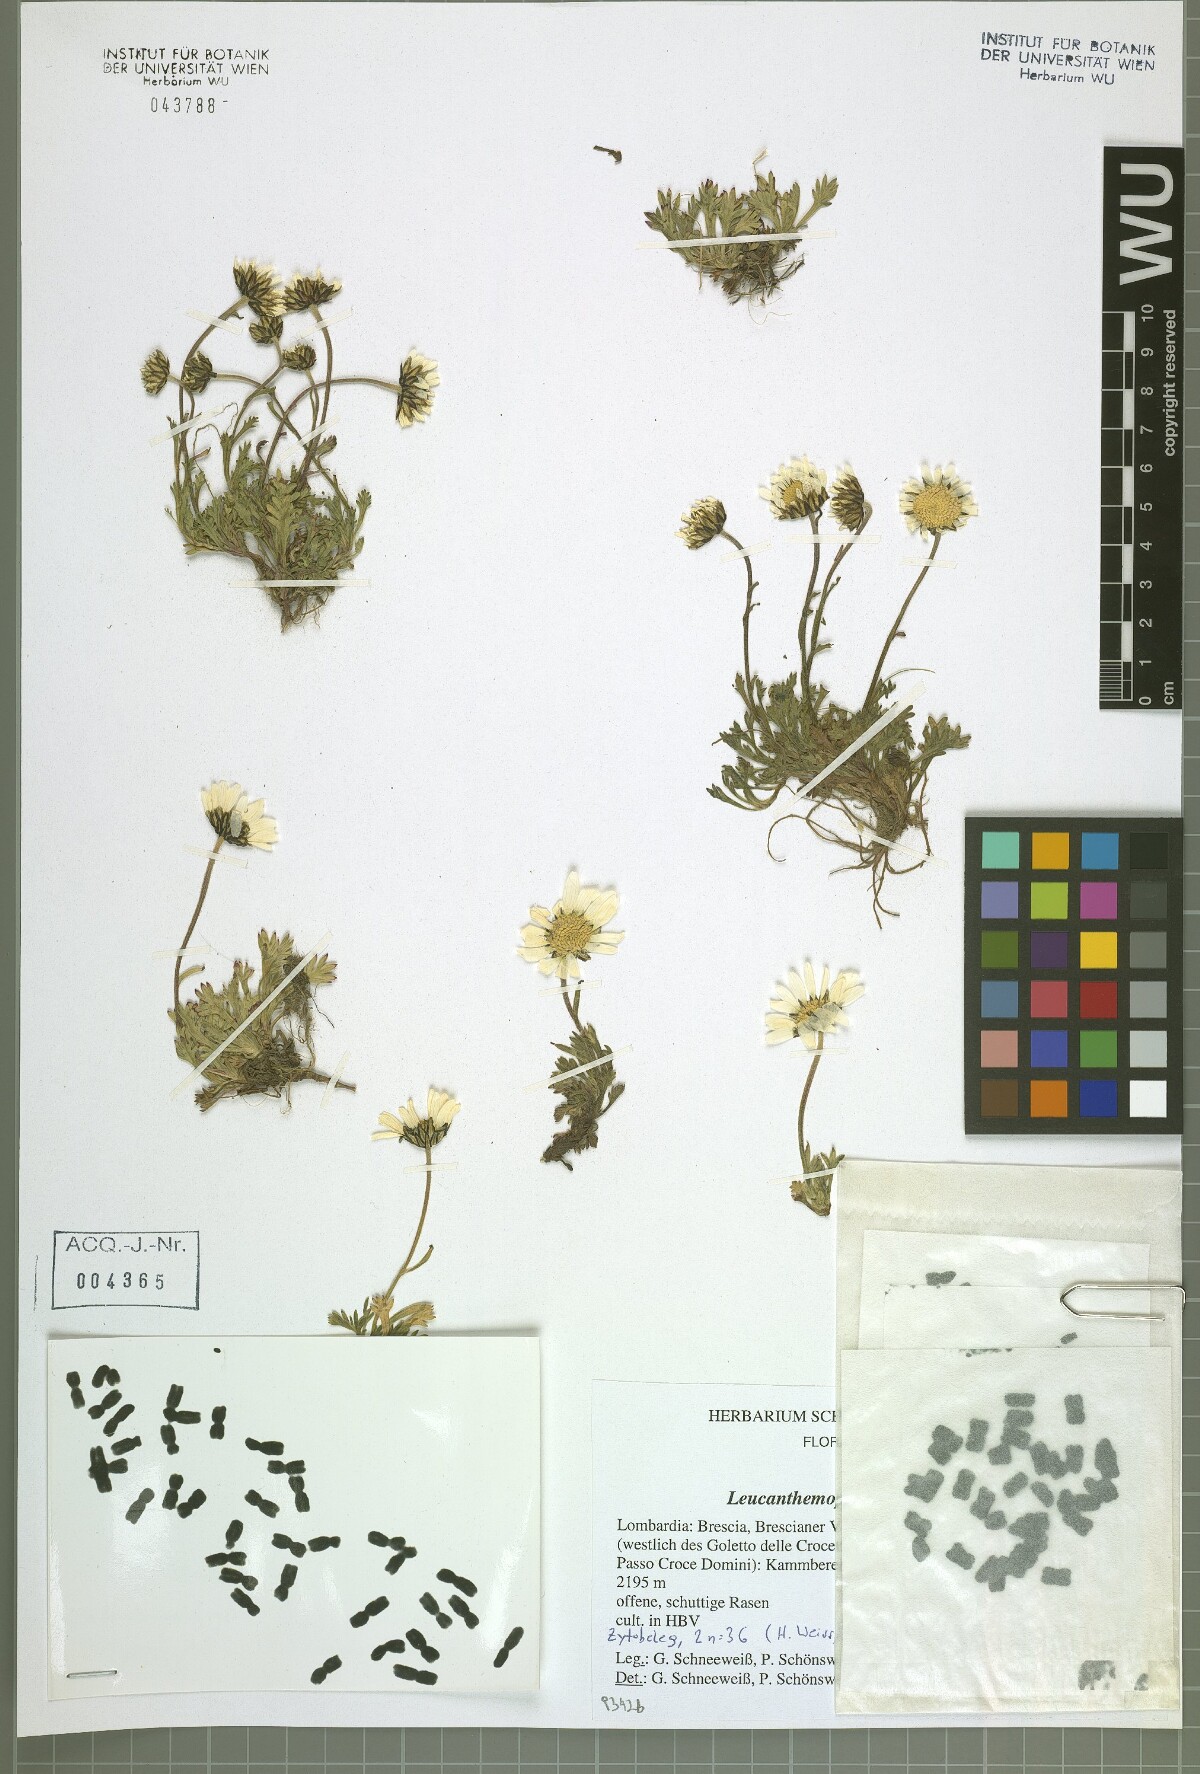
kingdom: Plantae
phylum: Tracheophyta
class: Magnoliopsida
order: Asterales
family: Asteraceae
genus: Leucanthemopsis
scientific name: Leucanthemopsis alpina
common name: Alpine moon daisy
